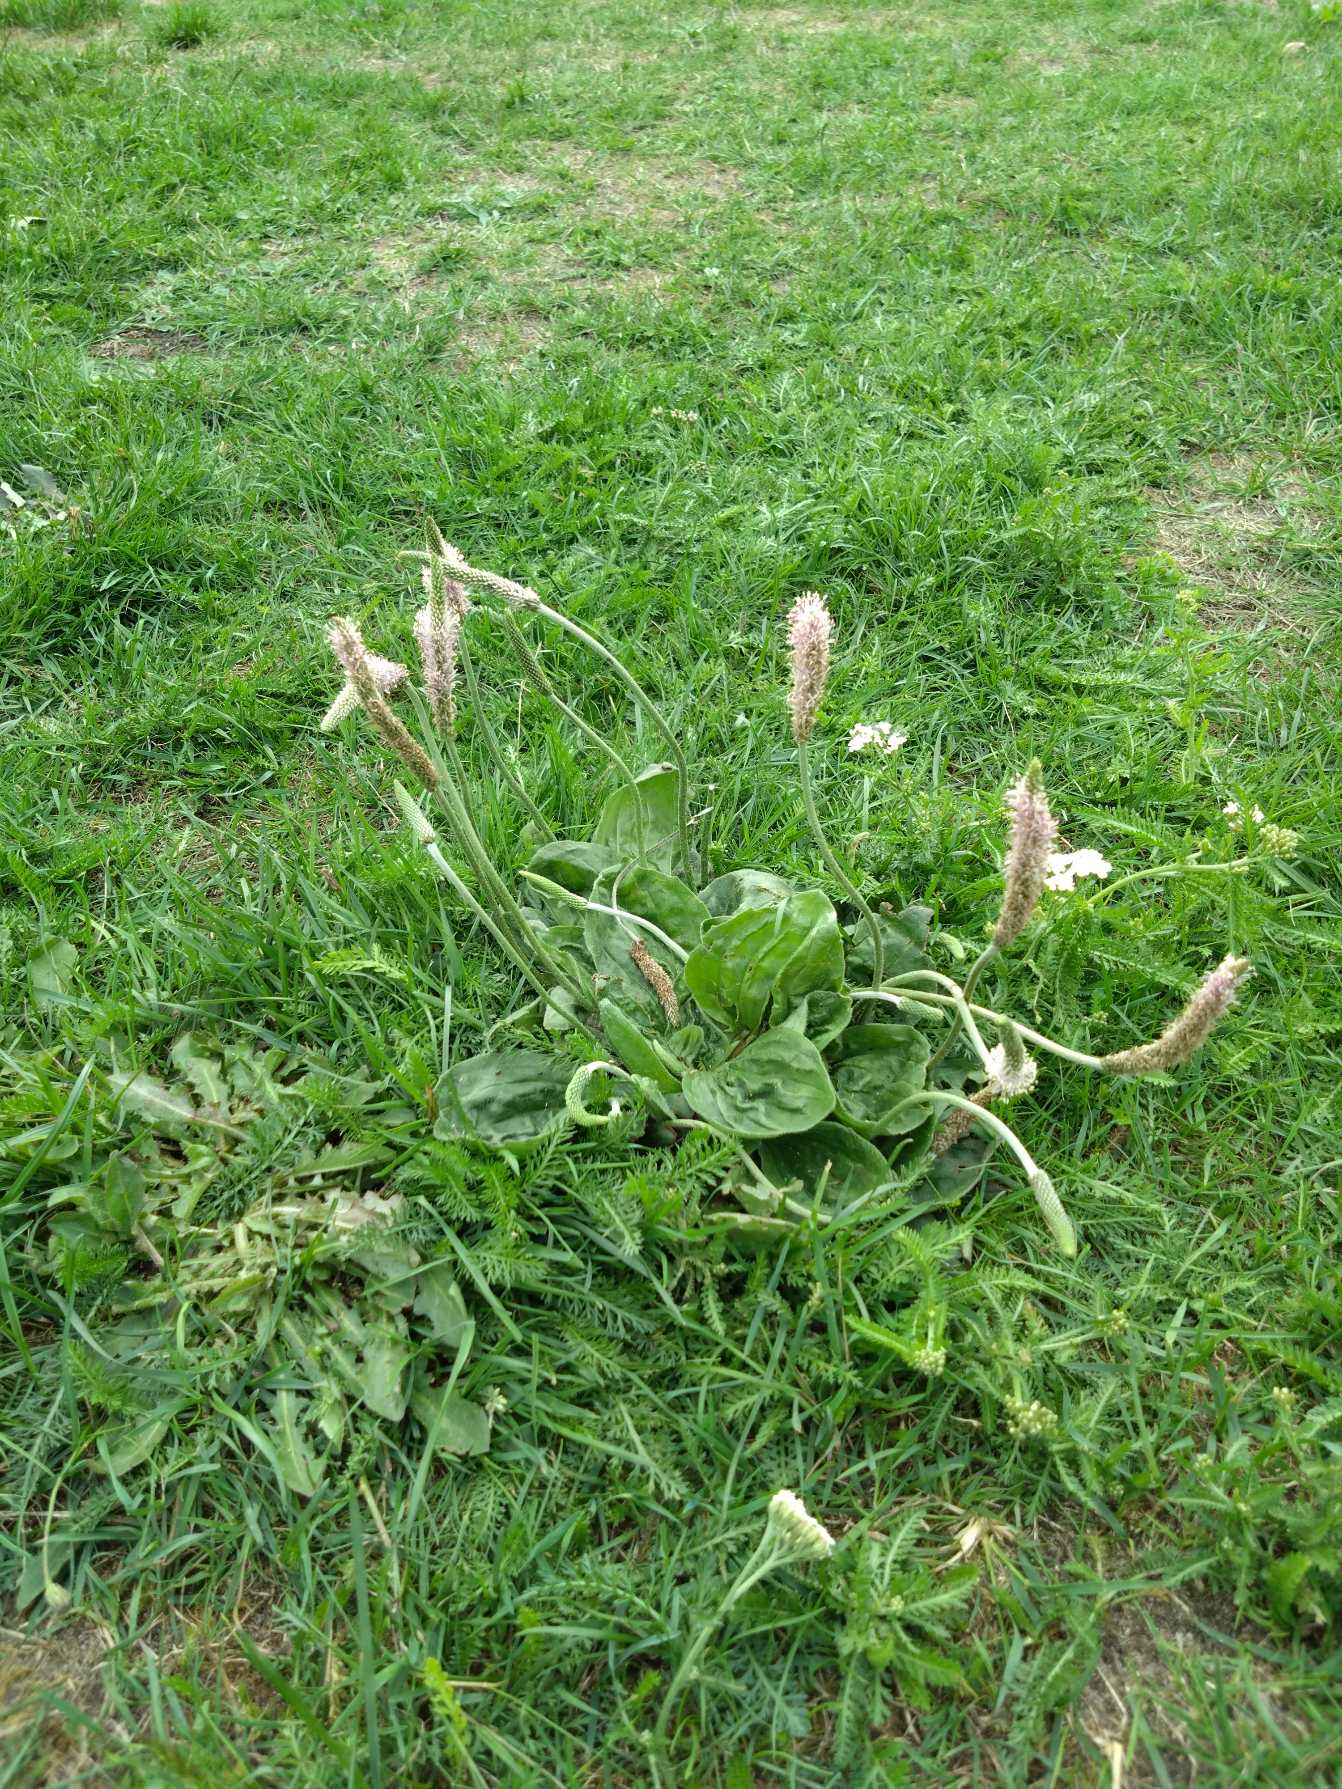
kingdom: Plantae
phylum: Tracheophyta
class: Magnoliopsida
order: Lamiales
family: Plantaginaceae
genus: Plantago
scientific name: Plantago media
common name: Dunet vejbred
